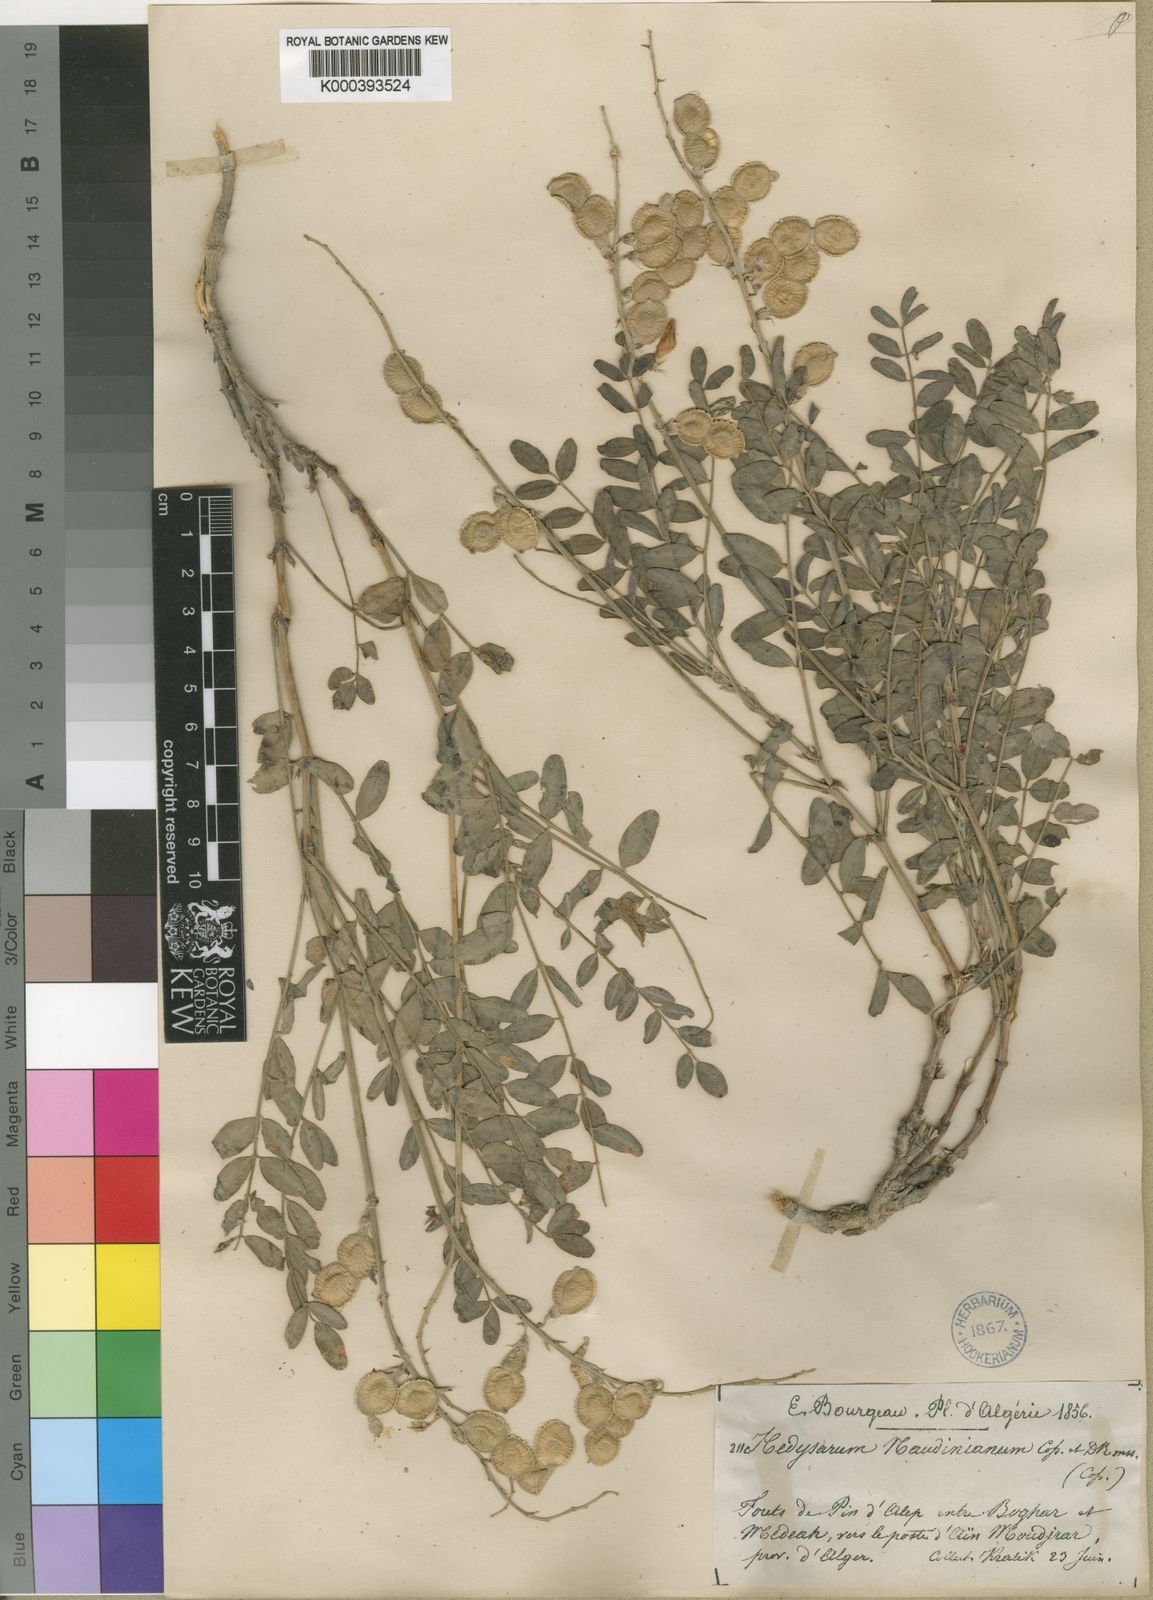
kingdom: Plantae
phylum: Tracheophyta
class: Magnoliopsida
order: Fabales
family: Fabaceae
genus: Hedysarum
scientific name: Hedysarum naudinianum
